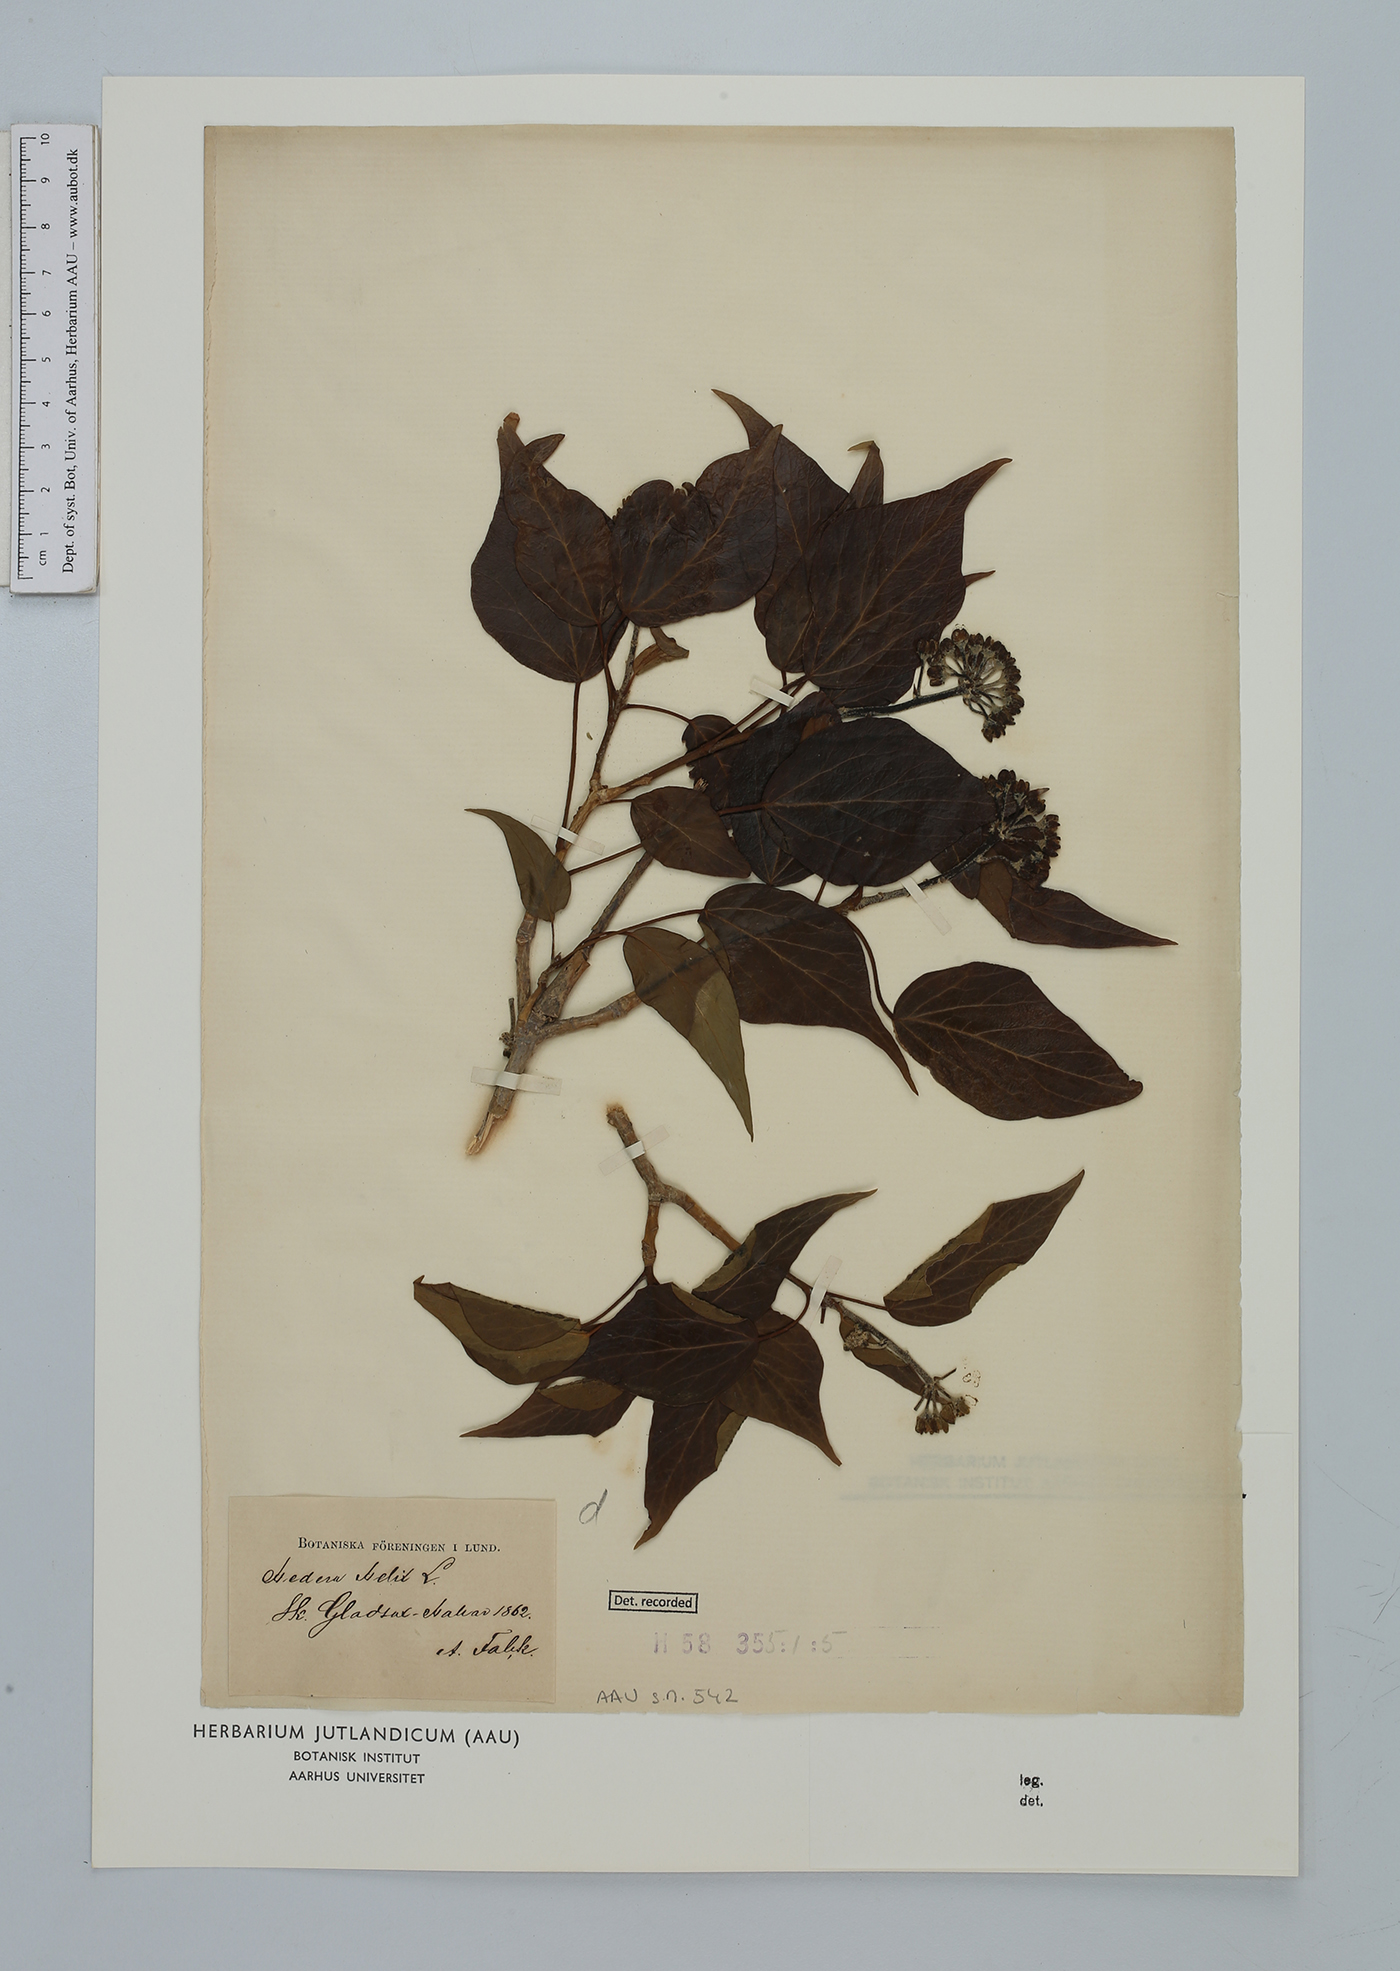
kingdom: Plantae
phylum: Tracheophyta
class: Magnoliopsida
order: Apiales
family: Araliaceae
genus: Hedera
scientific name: Hedera helix
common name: Ivy
